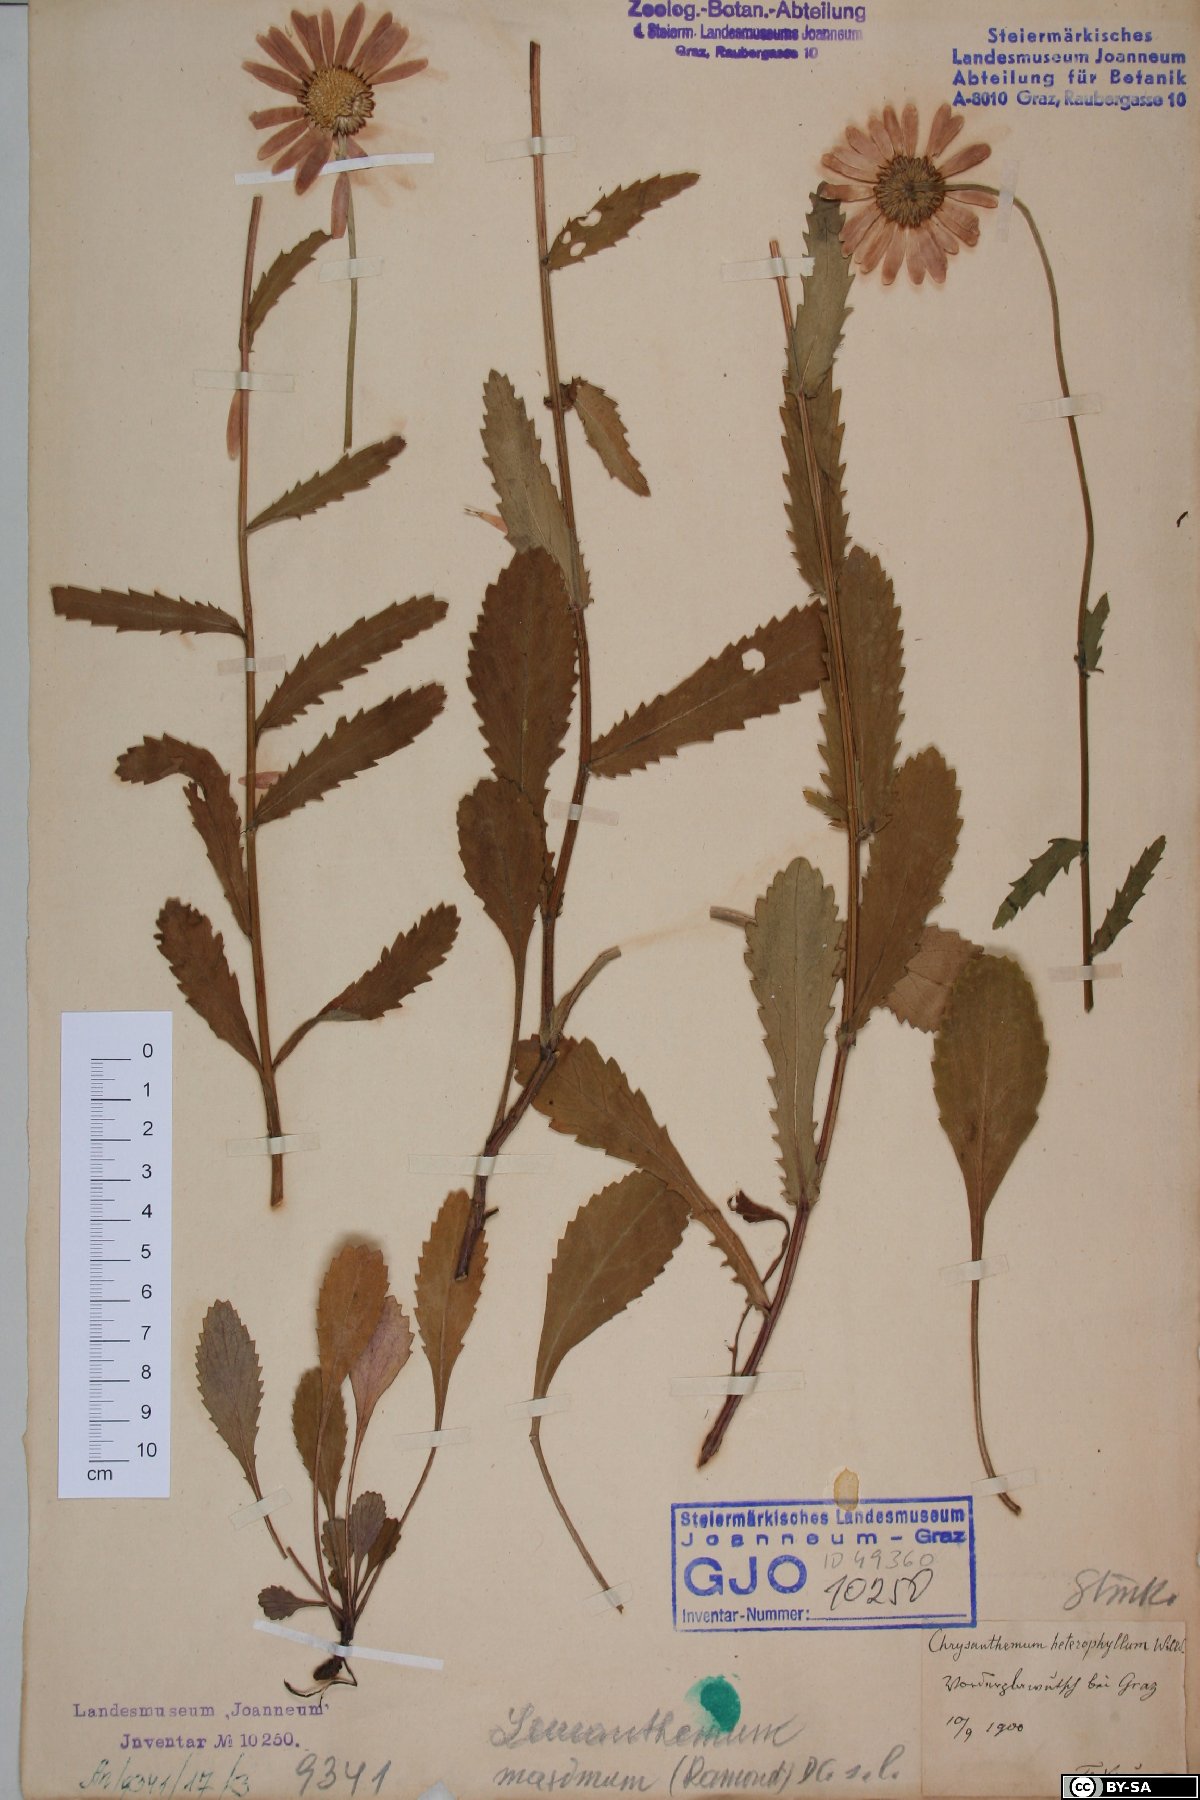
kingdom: Plantae
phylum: Tracheophyta
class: Magnoliopsida
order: Asterales
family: Asteraceae
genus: Leucanthemum
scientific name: Leucanthemum heterophyllum
